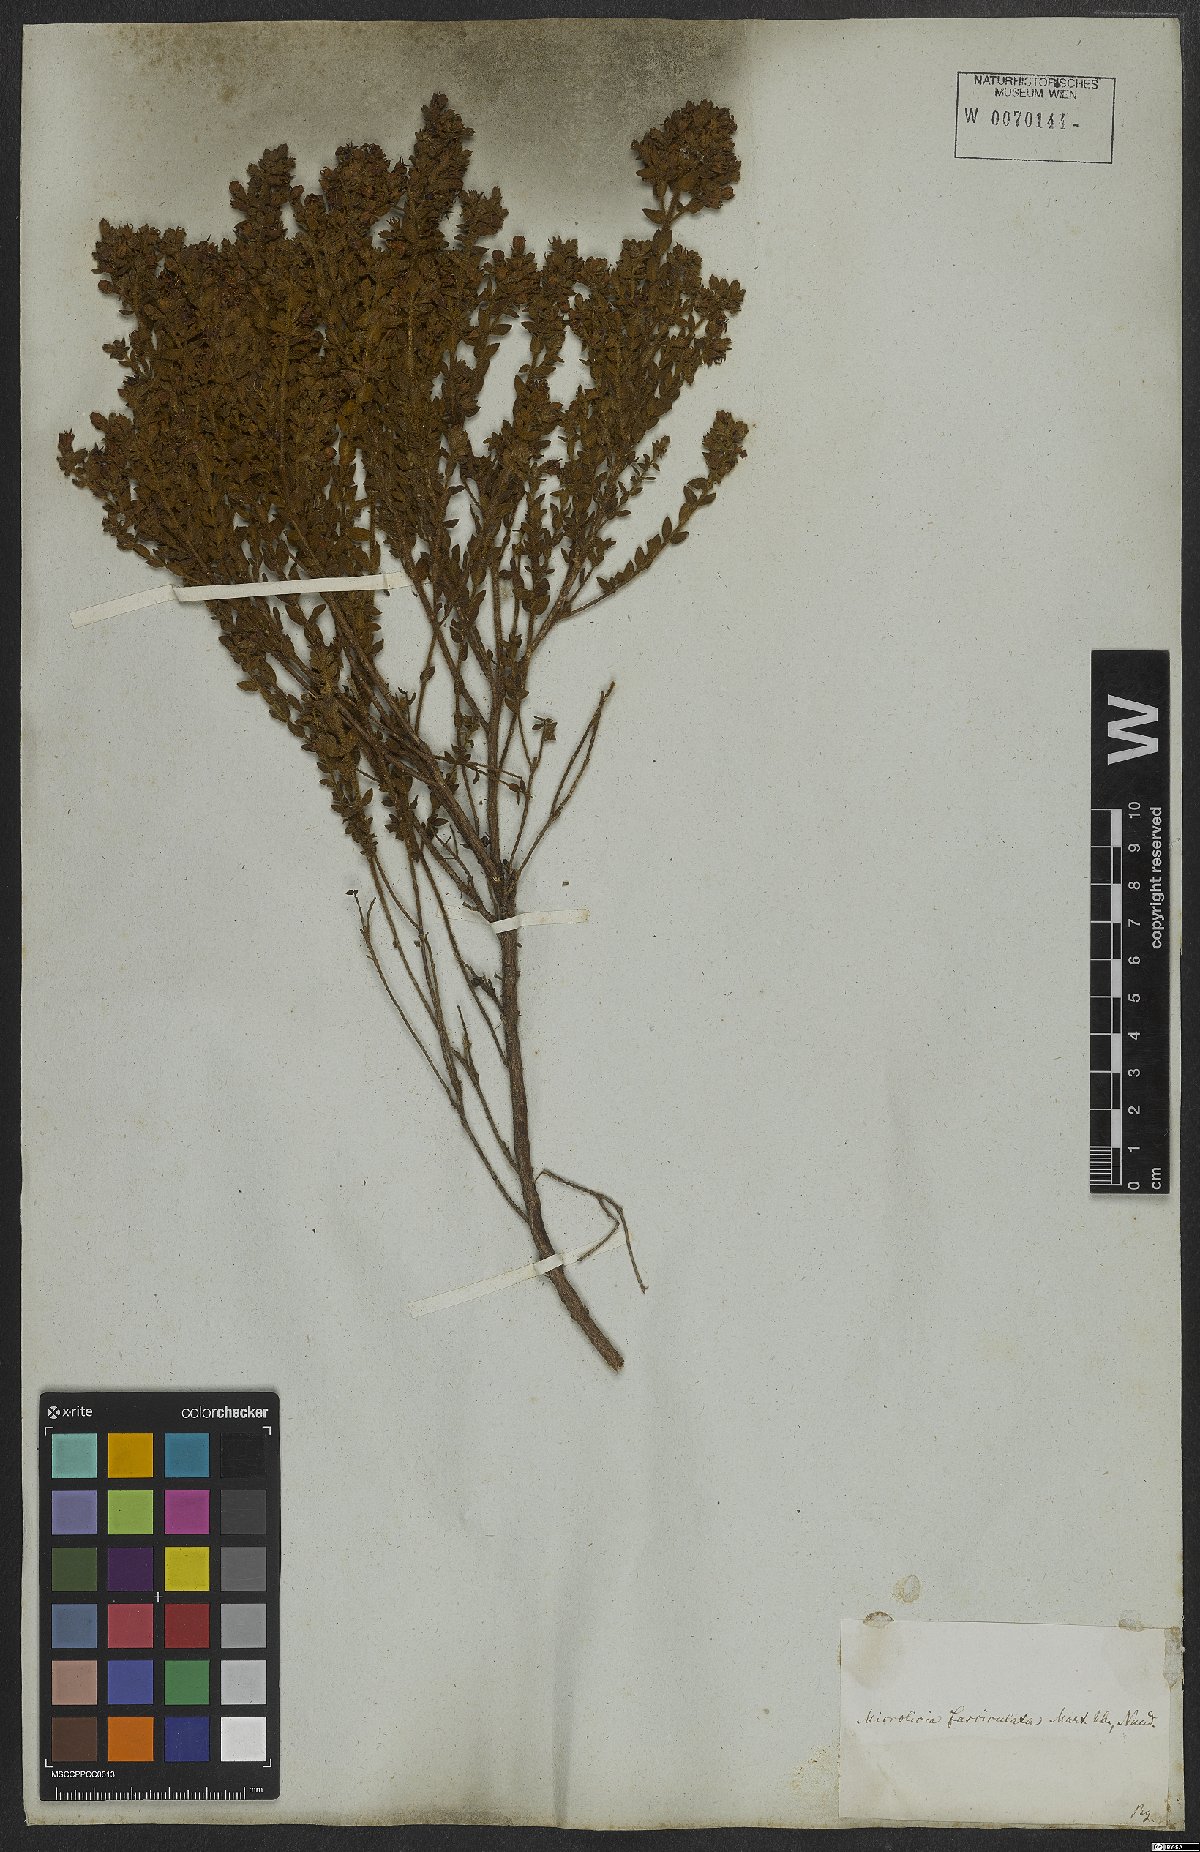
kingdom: Plantae
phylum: Tracheophyta
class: Magnoliopsida
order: Myrtales
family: Melastomataceae
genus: Microlicia
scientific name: Microlicia fasciculata
